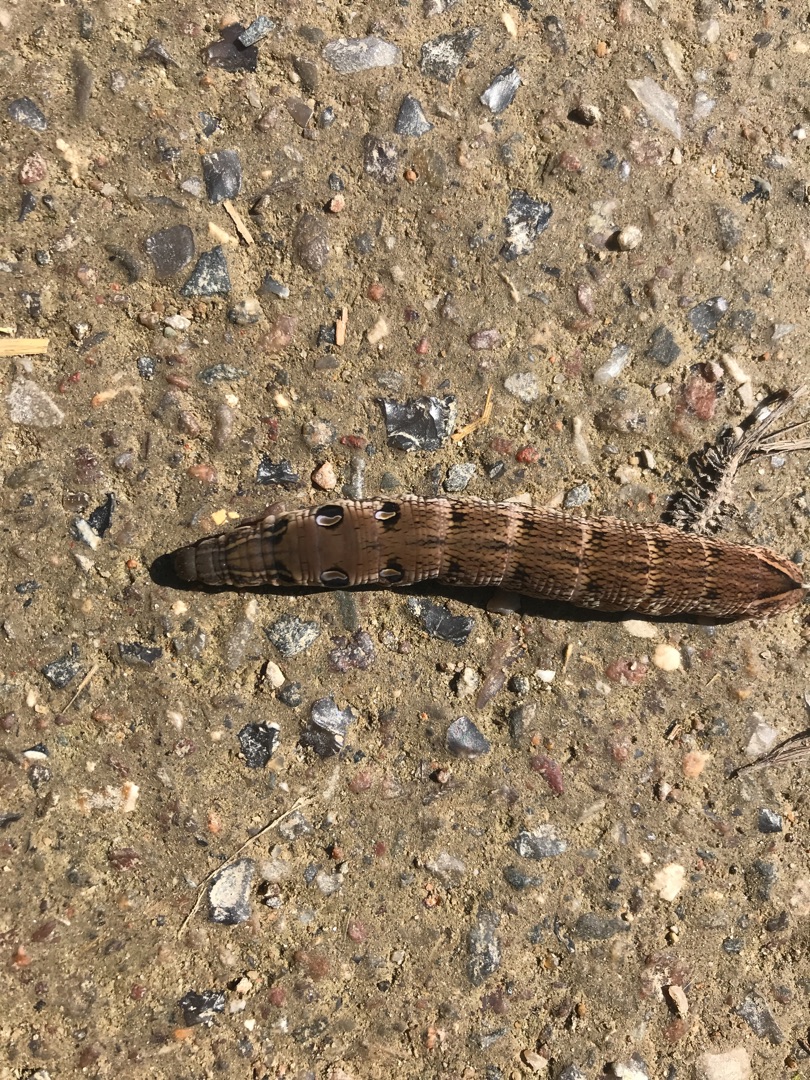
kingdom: Animalia
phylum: Arthropoda
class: Insecta
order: Lepidoptera
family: Sphingidae
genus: Deilephila
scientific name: Deilephila elpenor
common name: Dueurtsværmer
